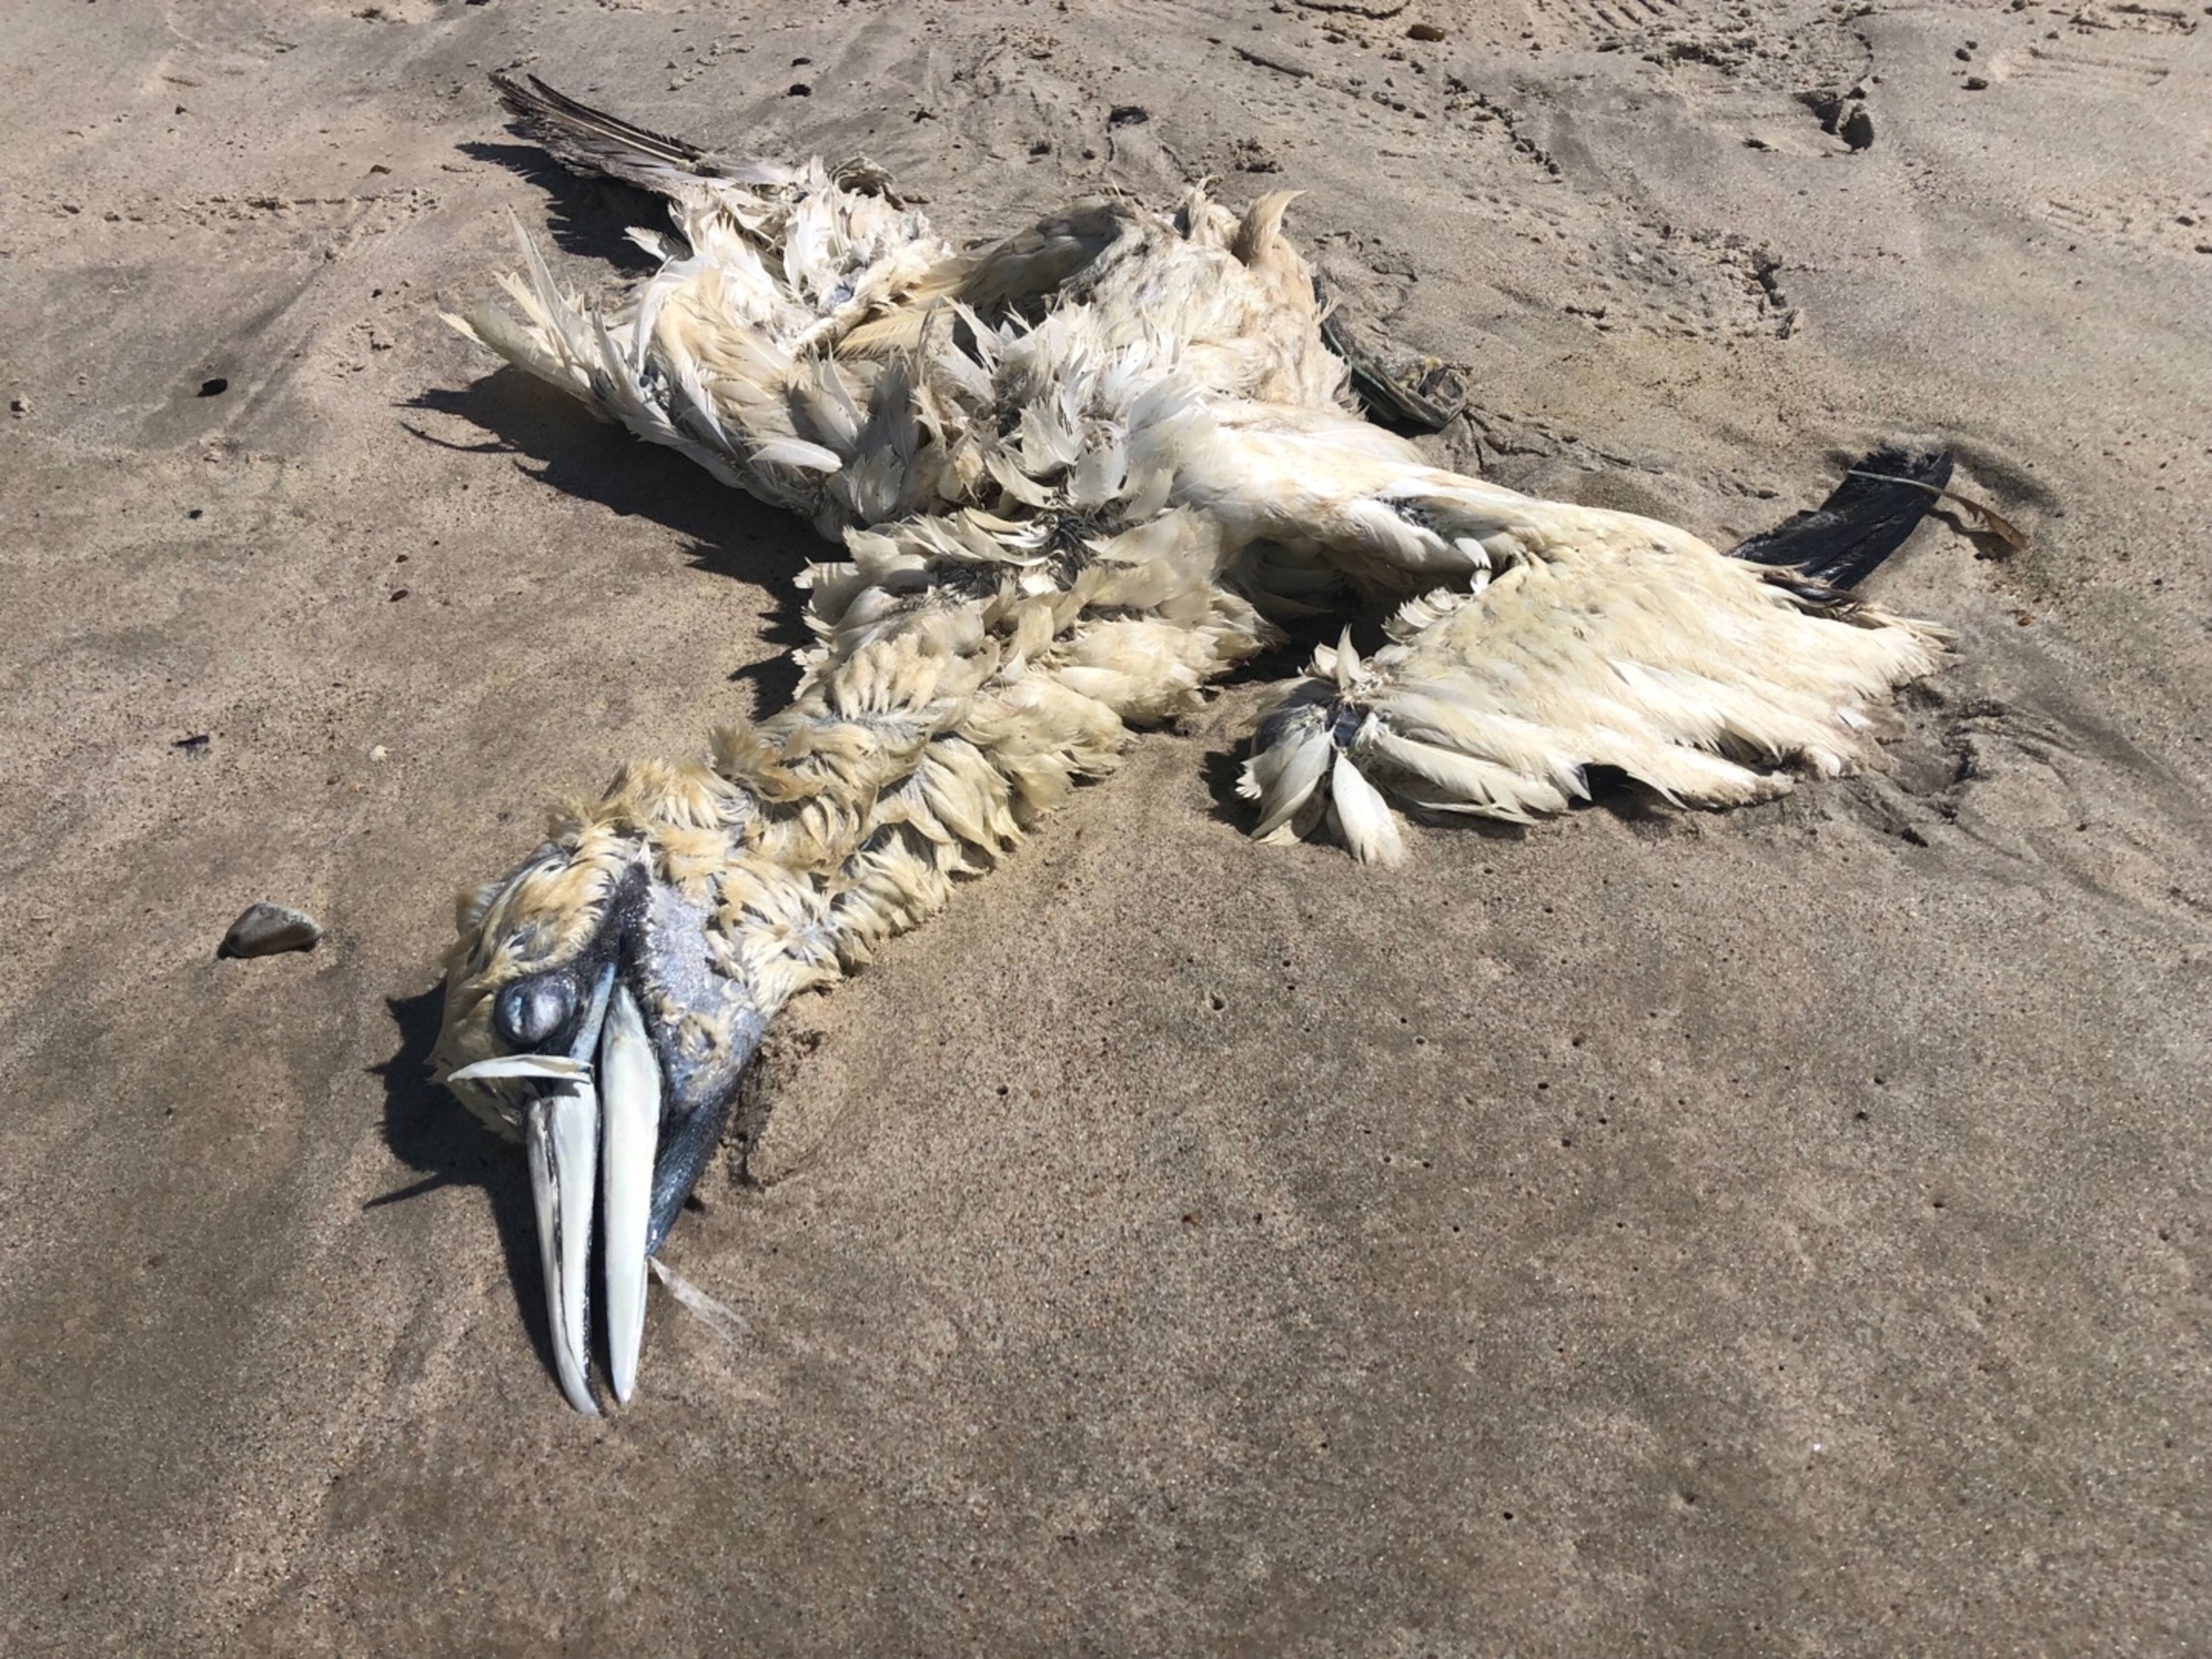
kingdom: Animalia
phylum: Chordata
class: Aves
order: Suliformes
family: Sulidae
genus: Morus
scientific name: Morus bassanus
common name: Sule
